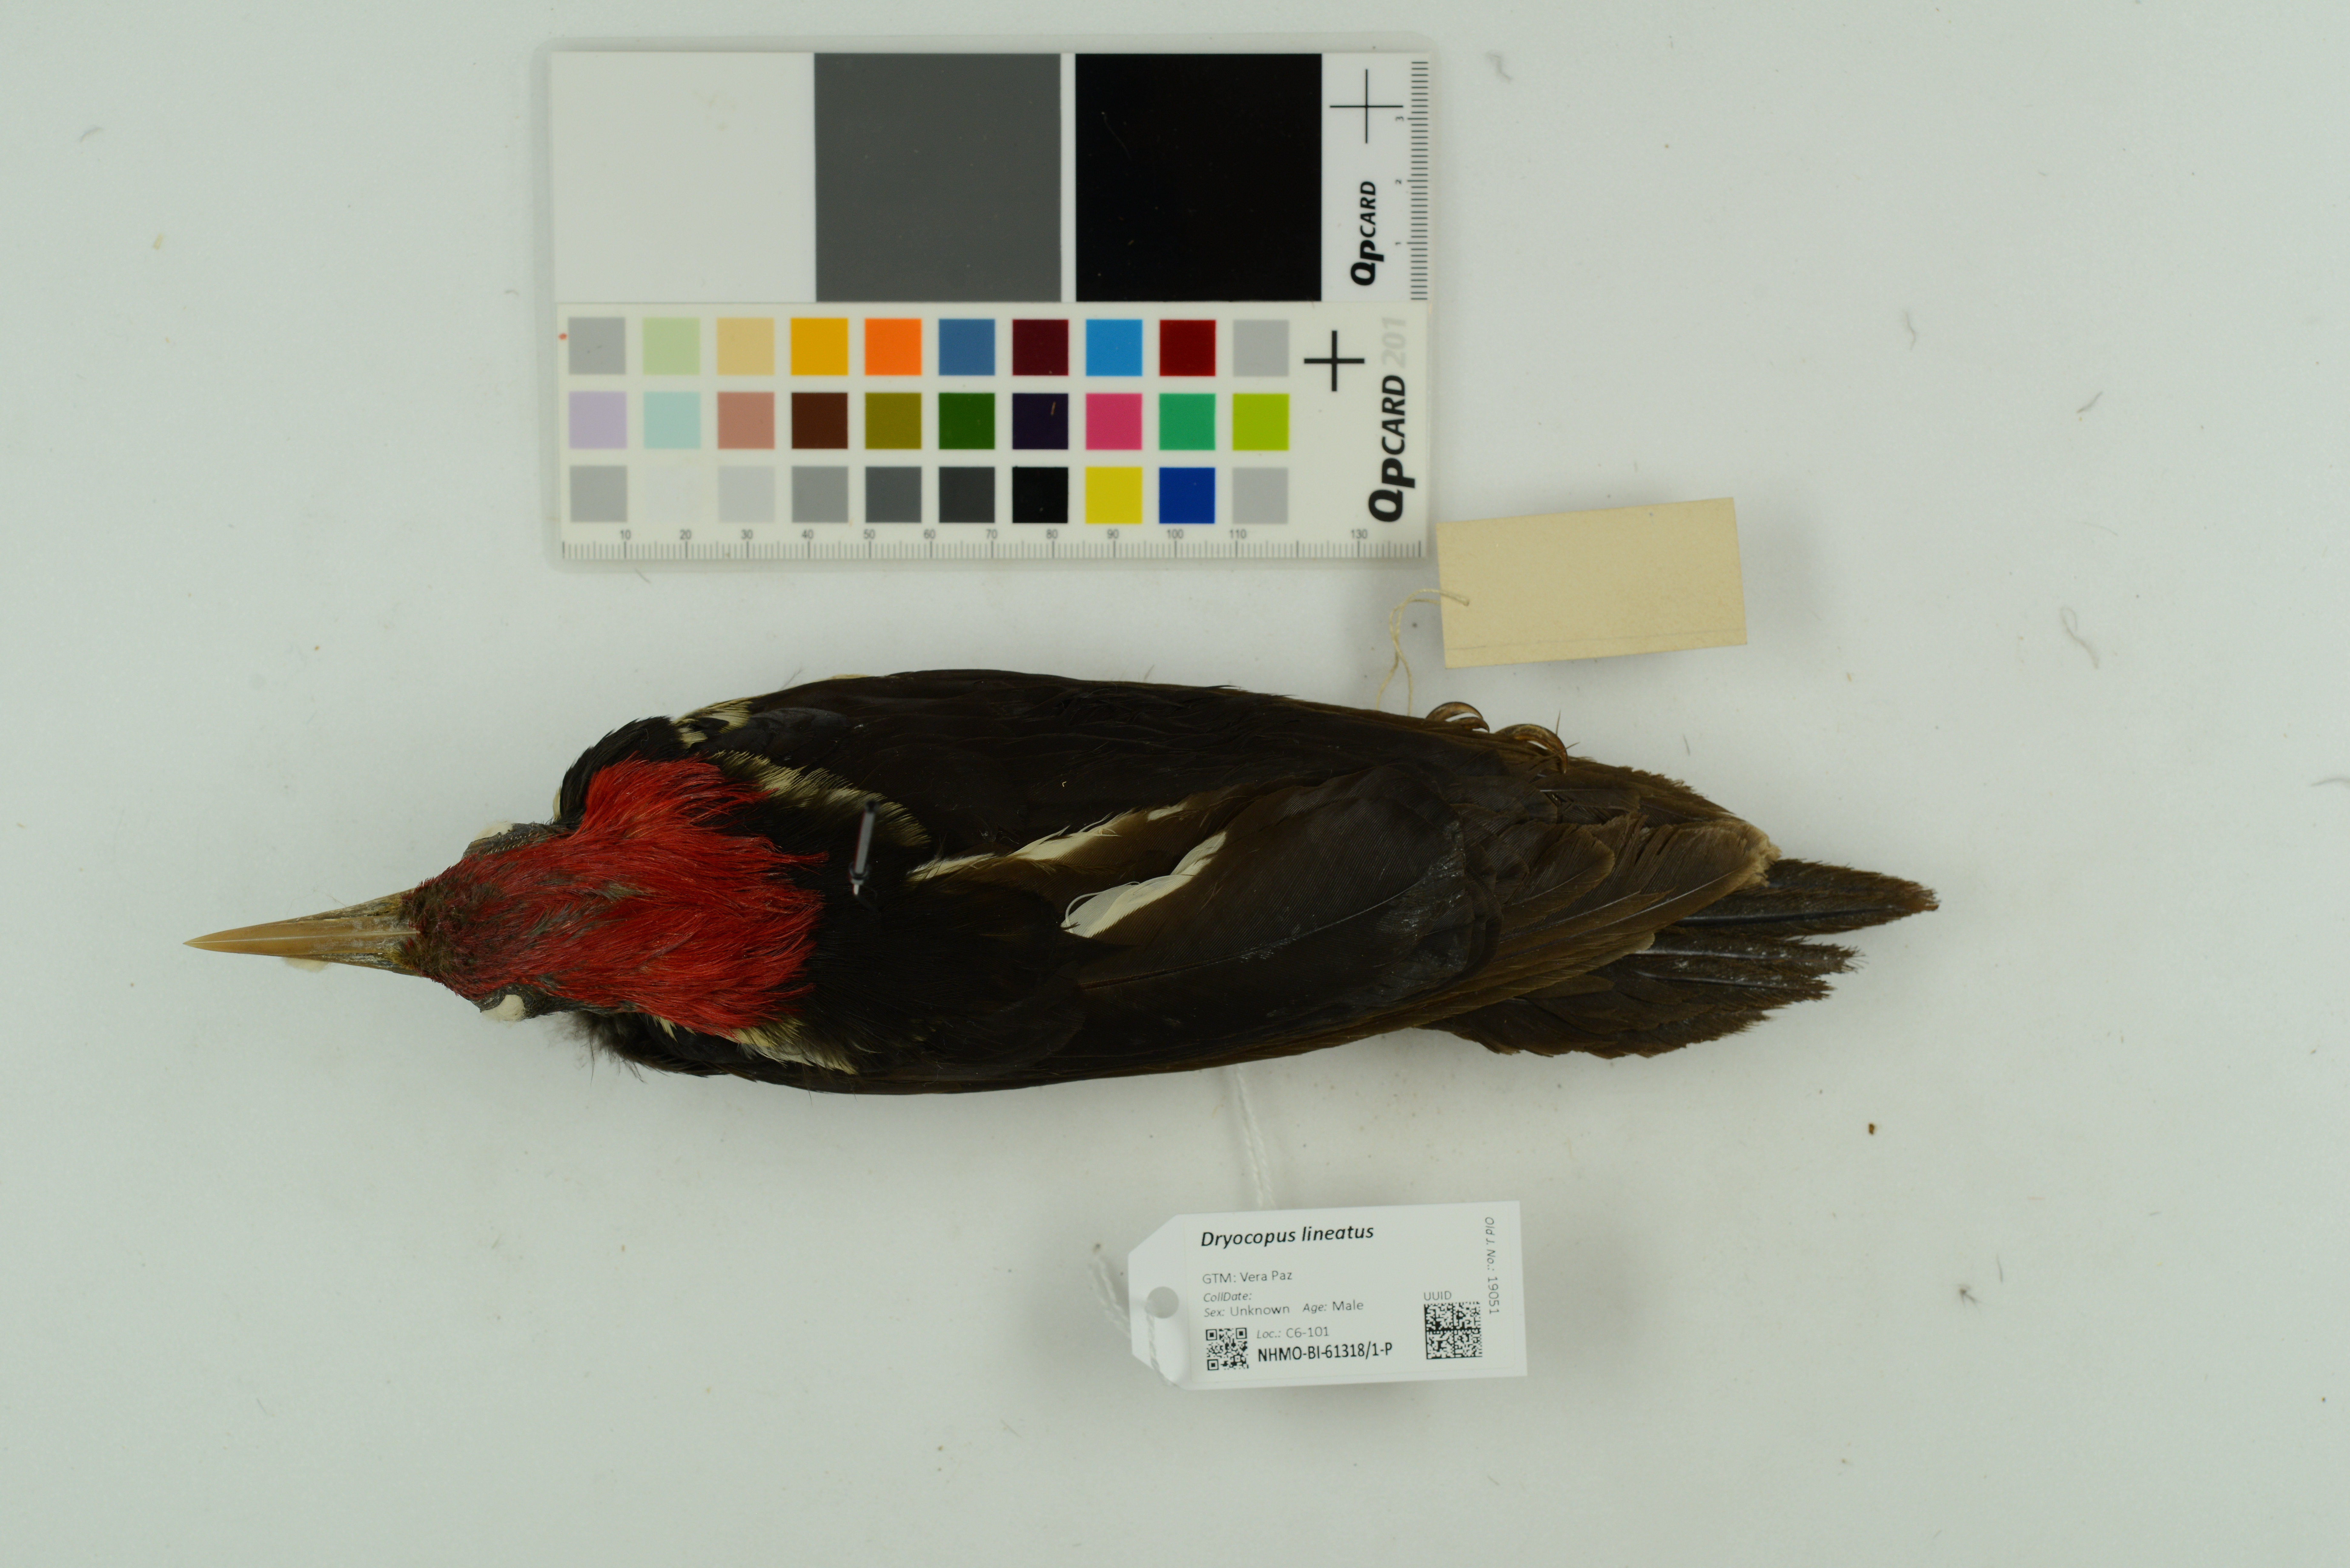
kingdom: Animalia
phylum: Chordata
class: Aves
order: Piciformes
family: Picidae
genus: Dryocopus
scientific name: Dryocopus lineatus
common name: Lineated woodpecker
